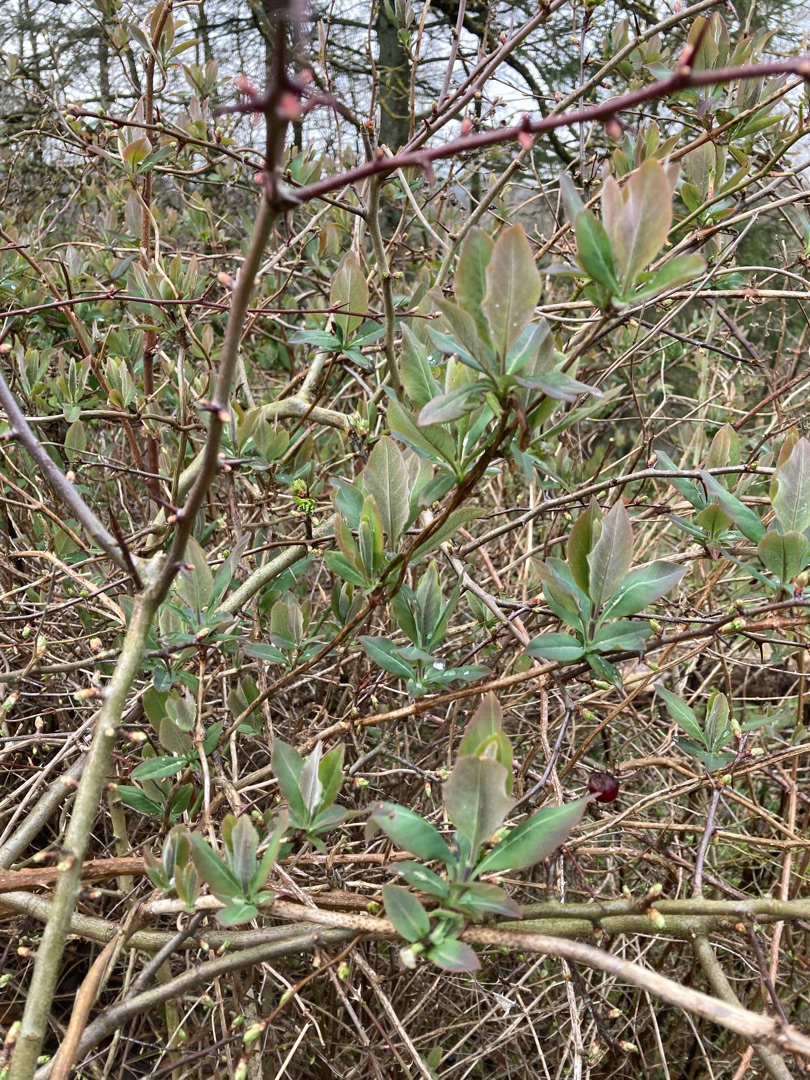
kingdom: Plantae
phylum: Tracheophyta
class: Magnoliopsida
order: Dipsacales
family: Caprifoliaceae
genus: Lonicera
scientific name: Lonicera periclymenum
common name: Almindelig gedeblad
